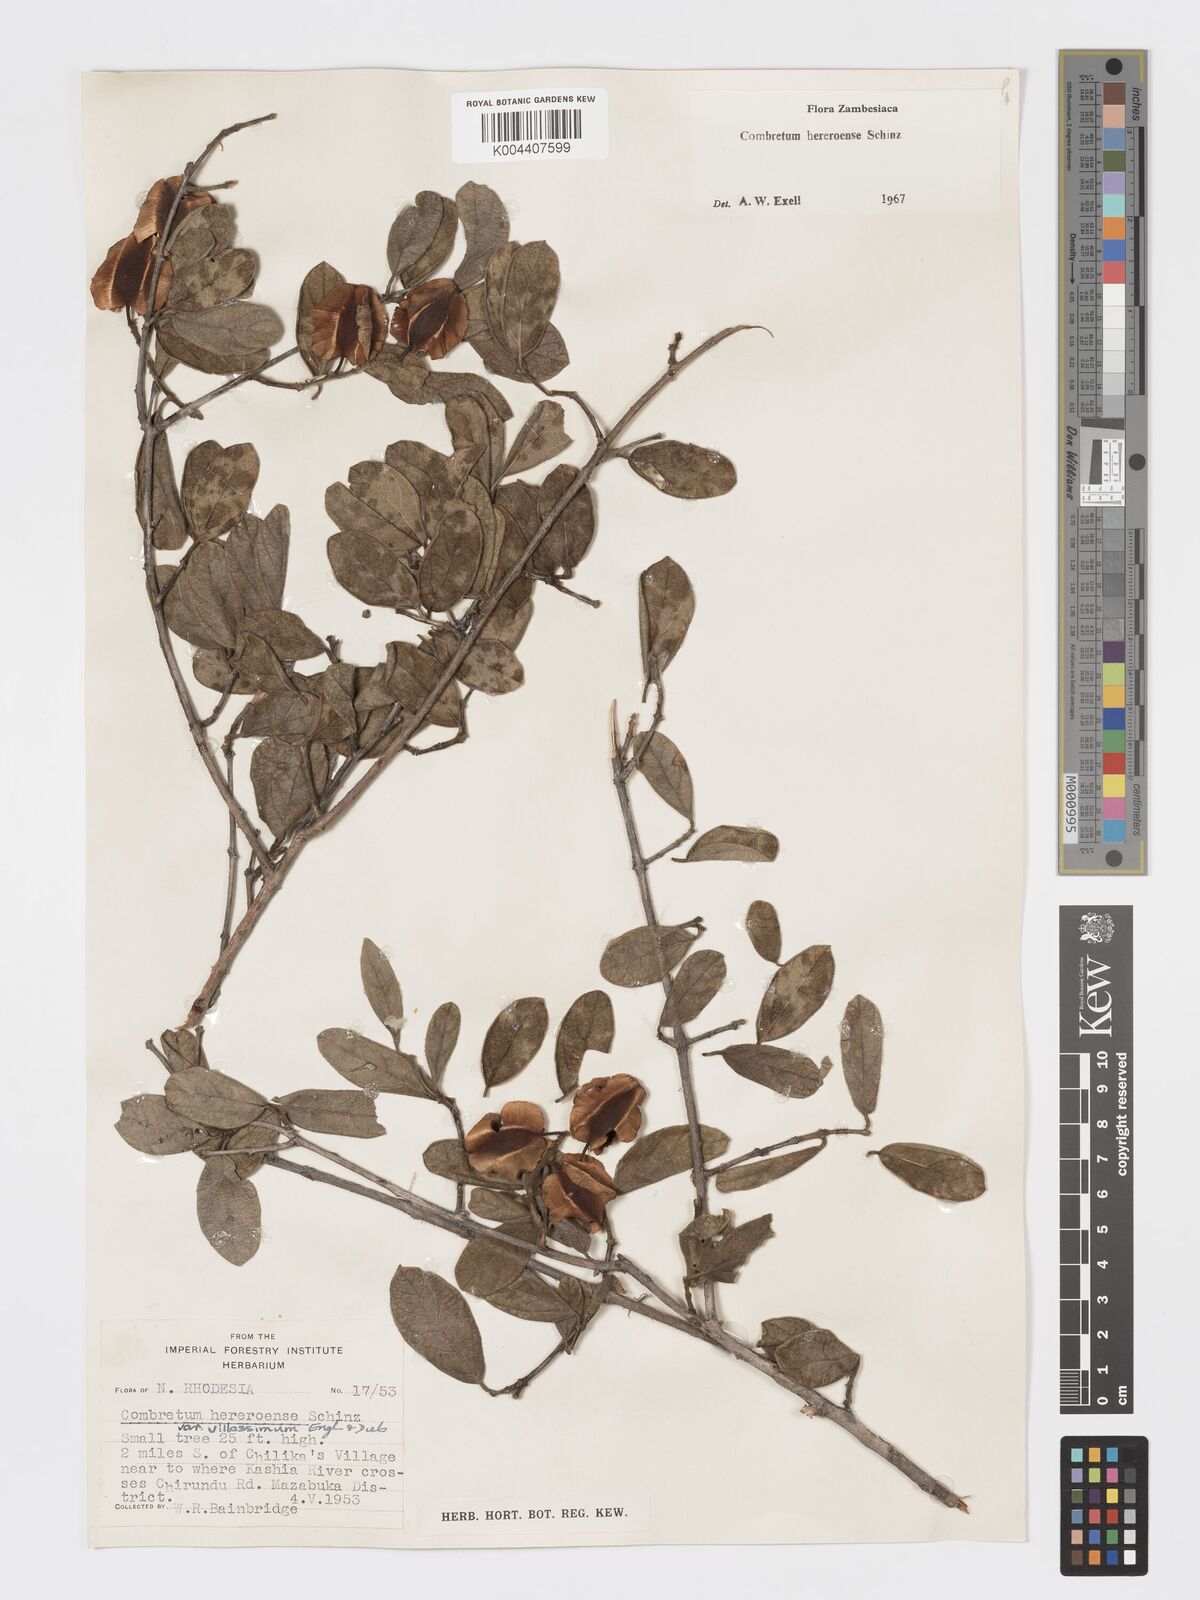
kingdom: Plantae
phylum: Tracheophyta
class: Magnoliopsida
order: Myrtales
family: Combretaceae
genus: Combretum
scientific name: Combretum hereroense
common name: Russet bushwillow
